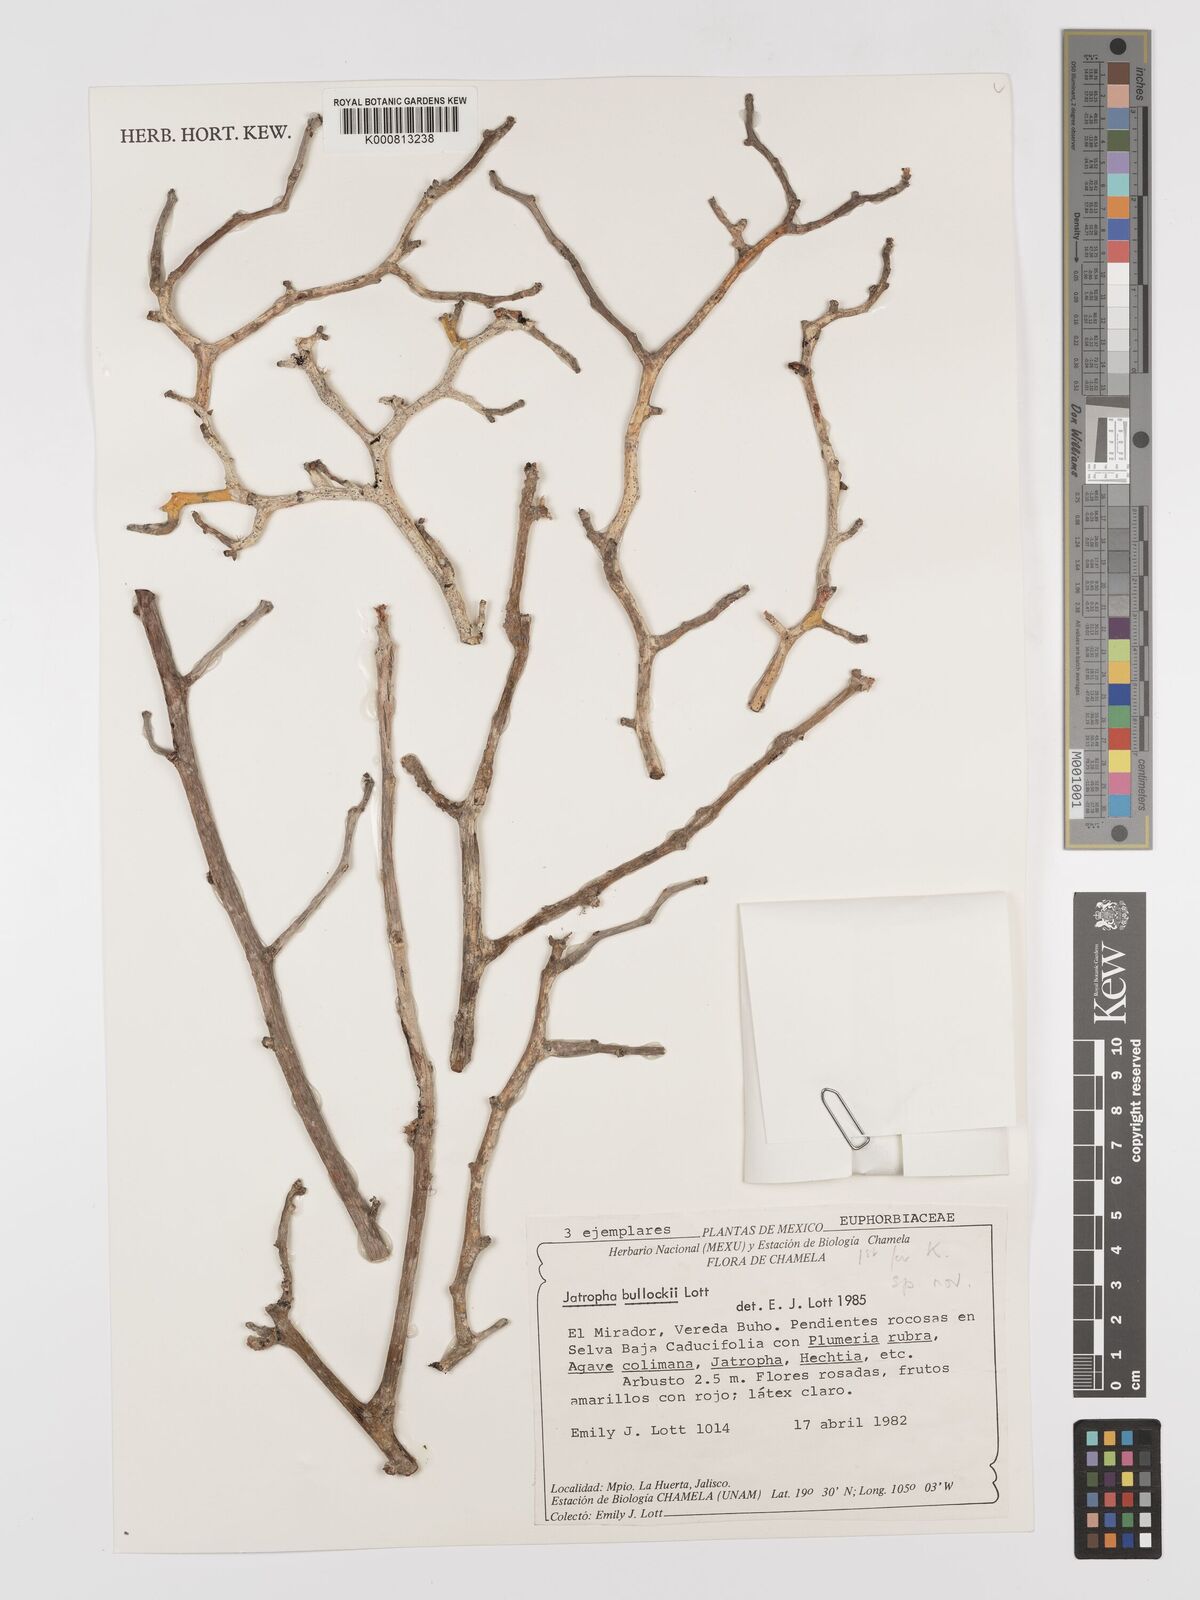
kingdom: Plantae
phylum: Tracheophyta
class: Magnoliopsida
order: Malpighiales
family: Euphorbiaceae
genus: Jatropha
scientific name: Jatropha bullockii
